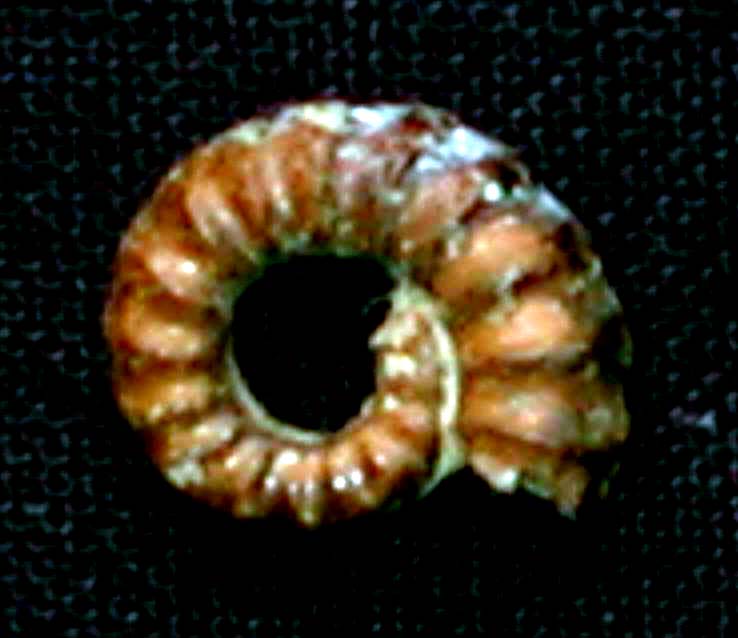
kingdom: Animalia
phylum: Mollusca
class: Cephalopoda
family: Eoderoceratidae
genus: Promicroceras
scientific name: Promicroceras planicosta
